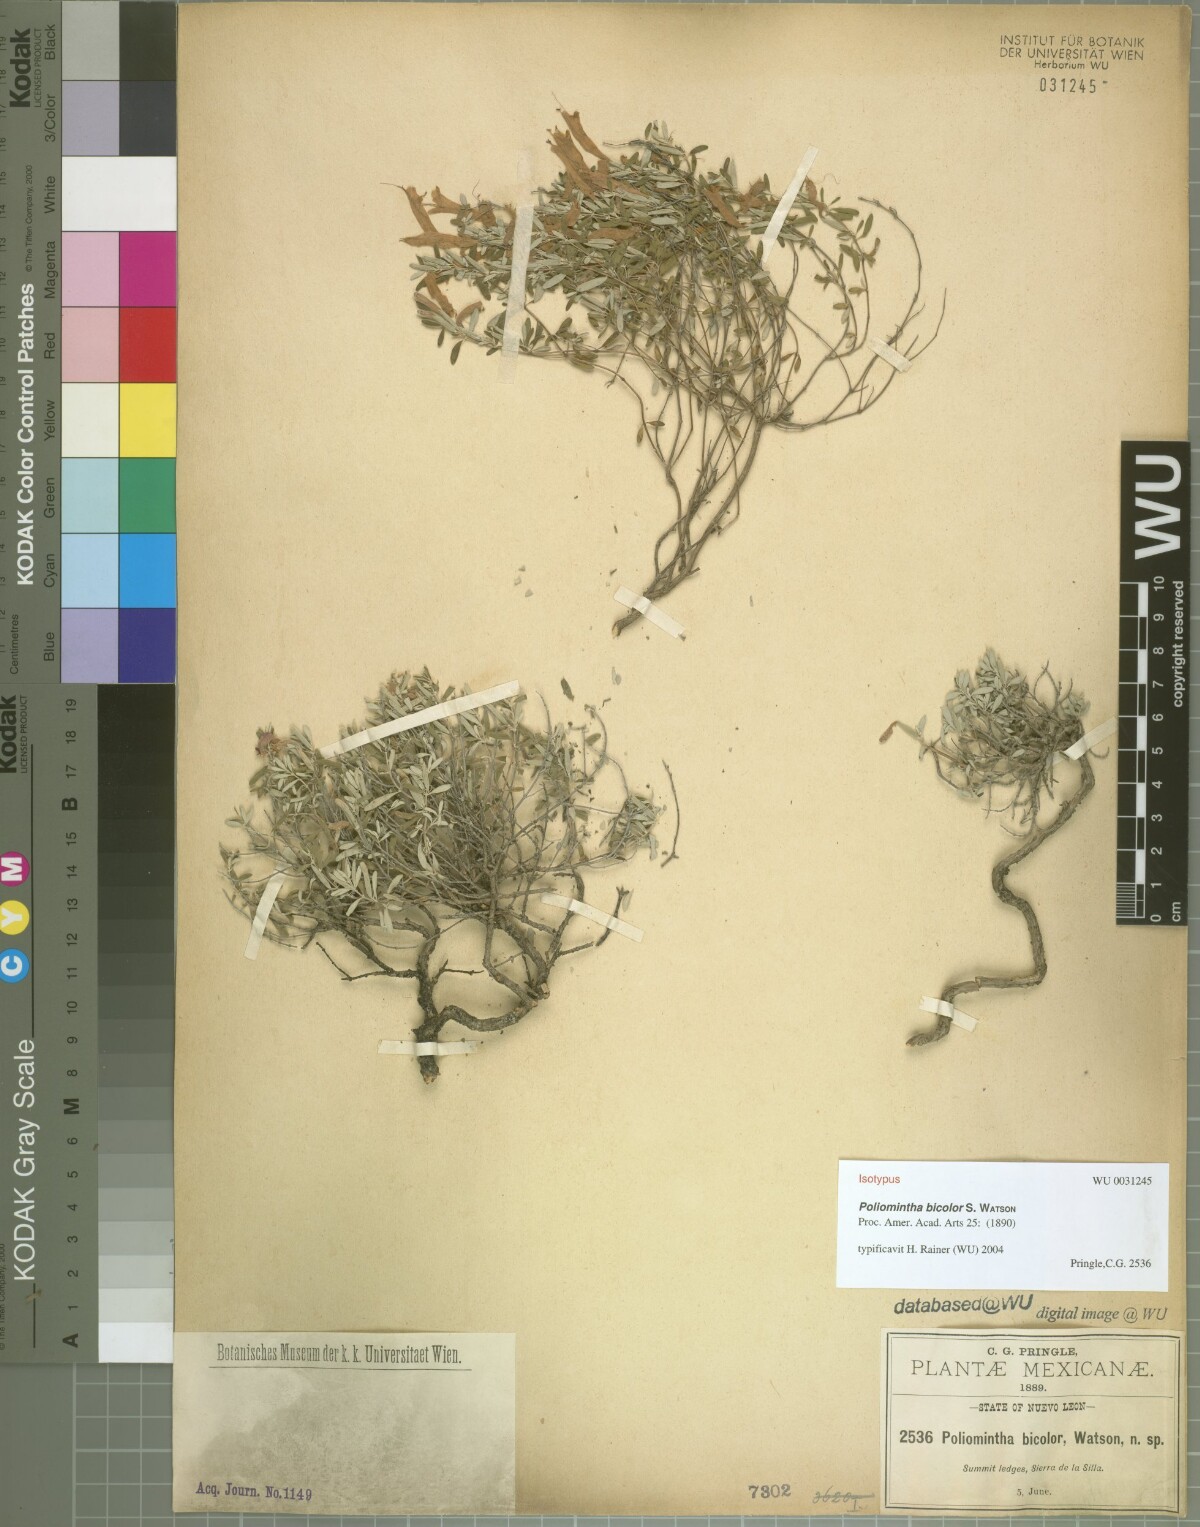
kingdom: Plantae
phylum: Tracheophyta
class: Magnoliopsida
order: Lamiales
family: Lamiaceae
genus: Poliomintha
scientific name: Poliomintha longiflora
